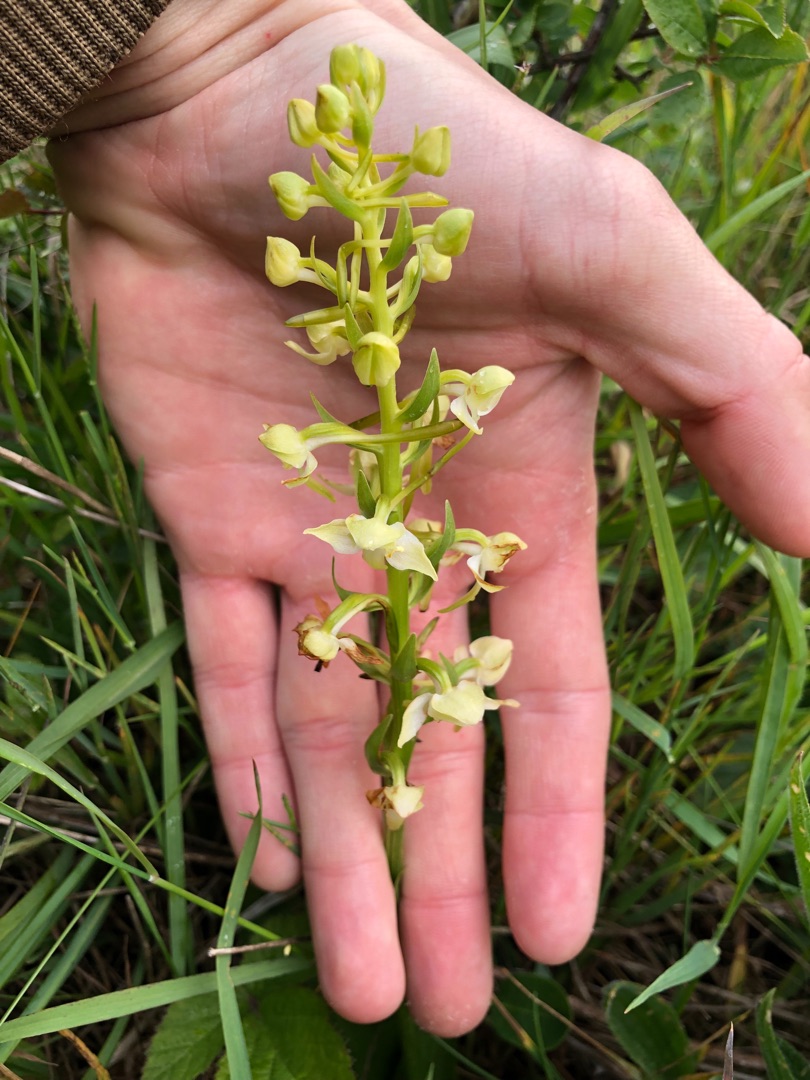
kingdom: Plantae
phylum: Tracheophyta
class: Liliopsida
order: Asparagales
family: Orchidaceae
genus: Platanthera
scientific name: Platanthera chlorantha
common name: Skov-gøgelilje
